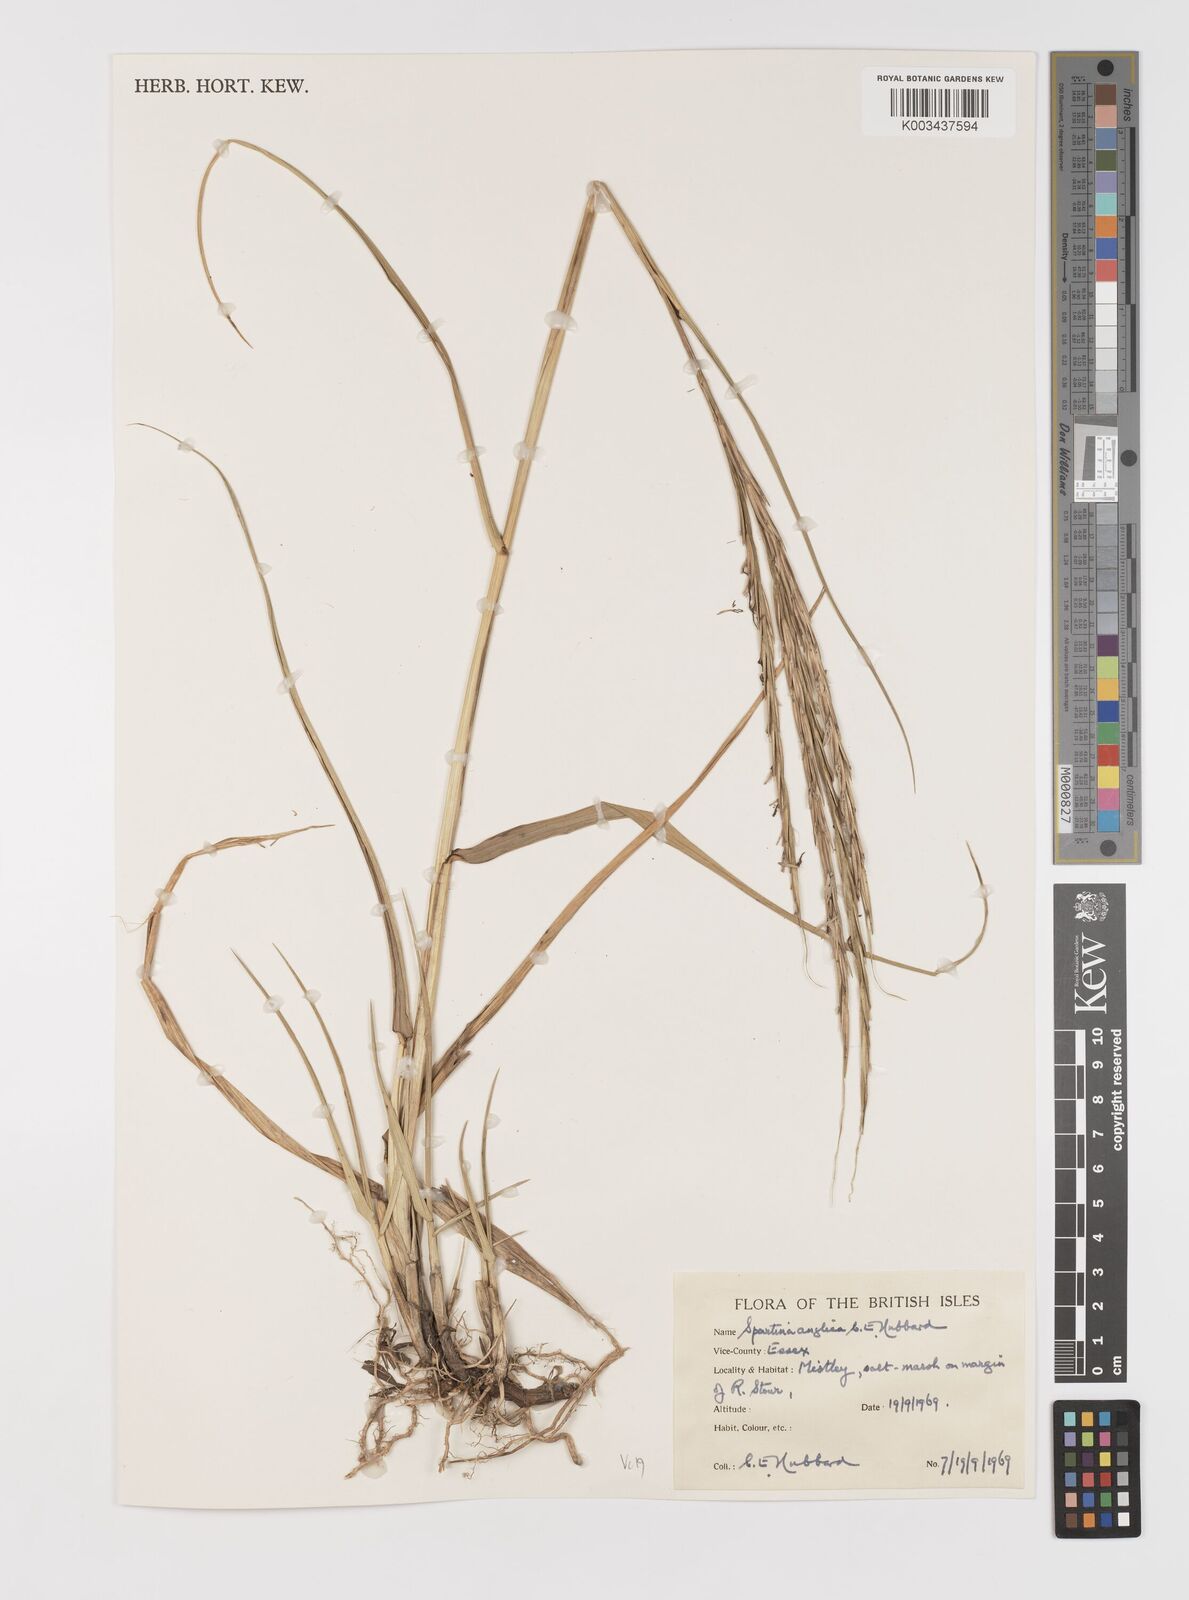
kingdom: Plantae
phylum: Tracheophyta
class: Liliopsida
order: Poales
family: Poaceae
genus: Sporobolus
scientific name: Sporobolus anglicus
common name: English cordgrass
